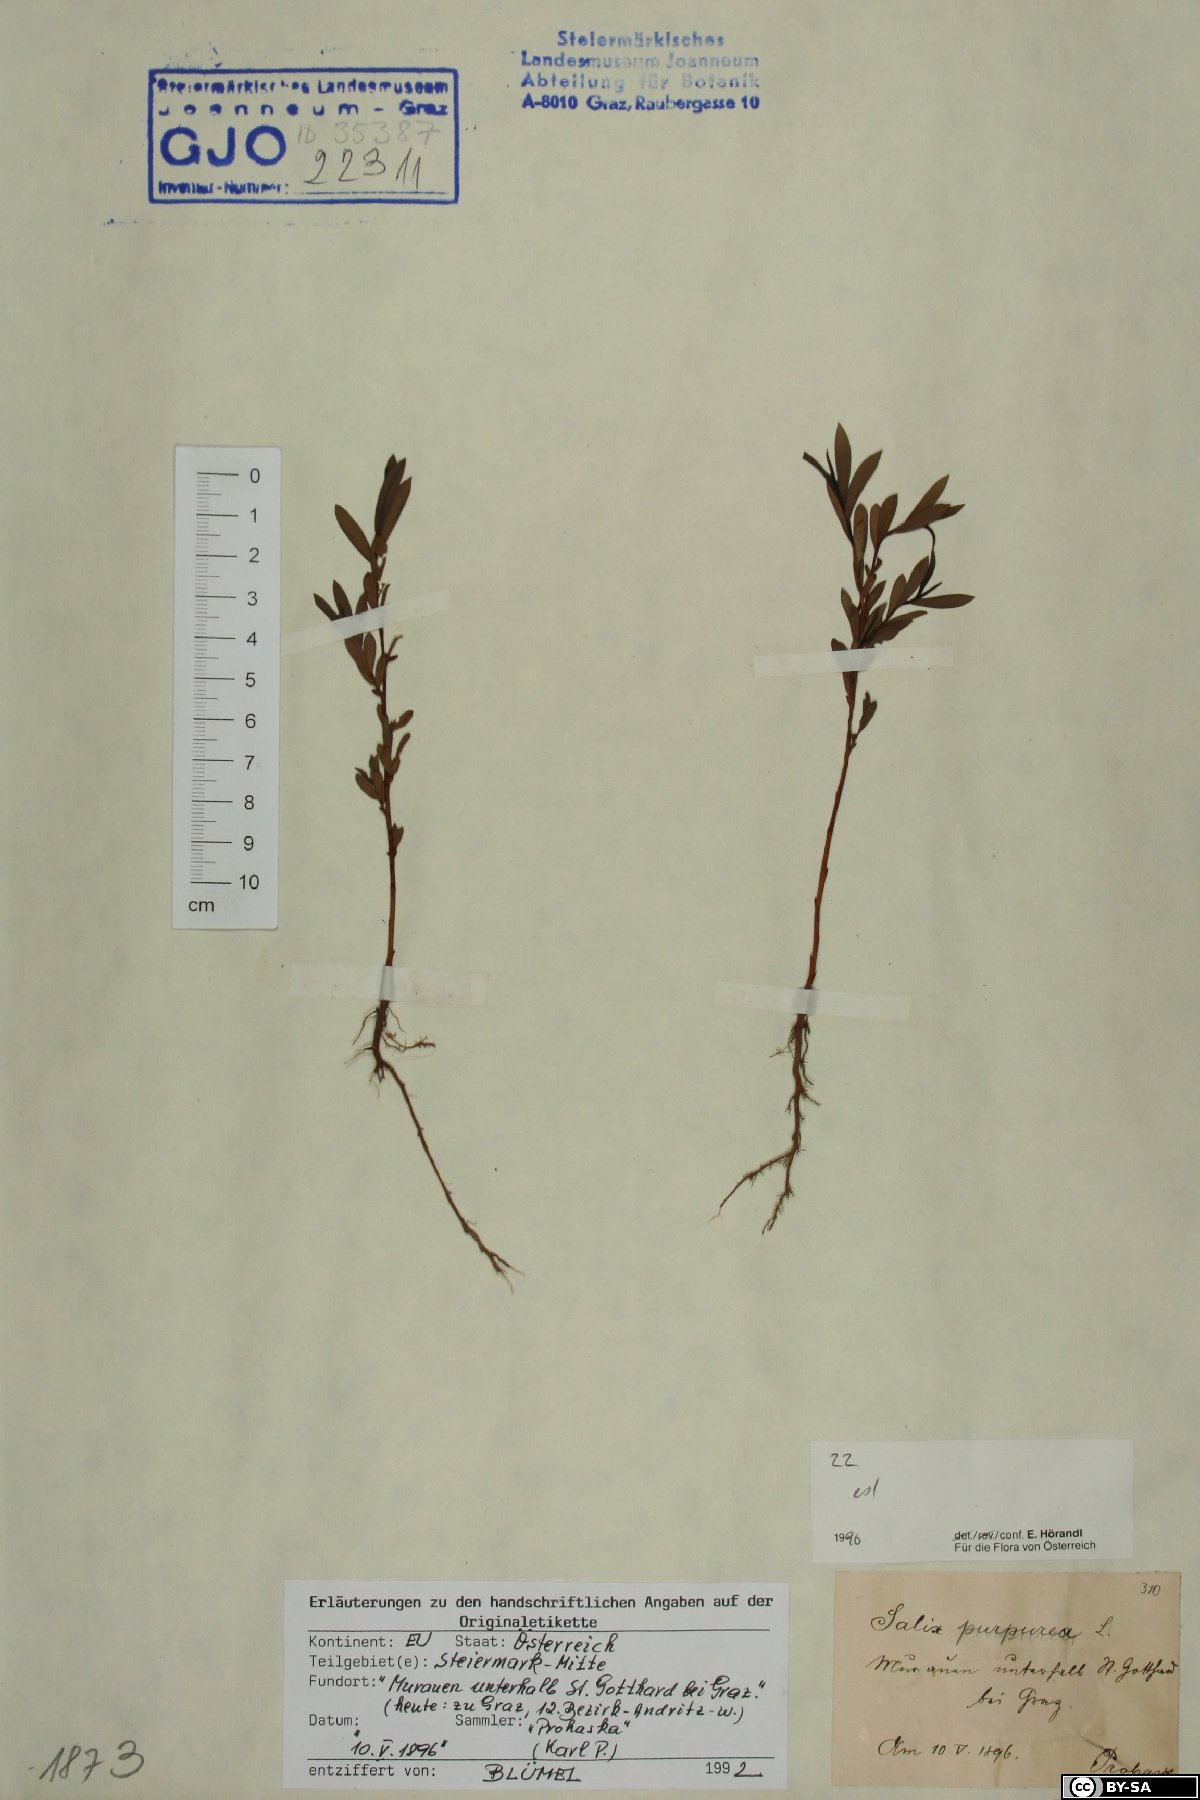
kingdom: Plantae
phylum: Tracheophyta
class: Magnoliopsida
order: Malpighiales
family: Salicaceae
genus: Salix
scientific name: Salix purpurea
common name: Purple willow
